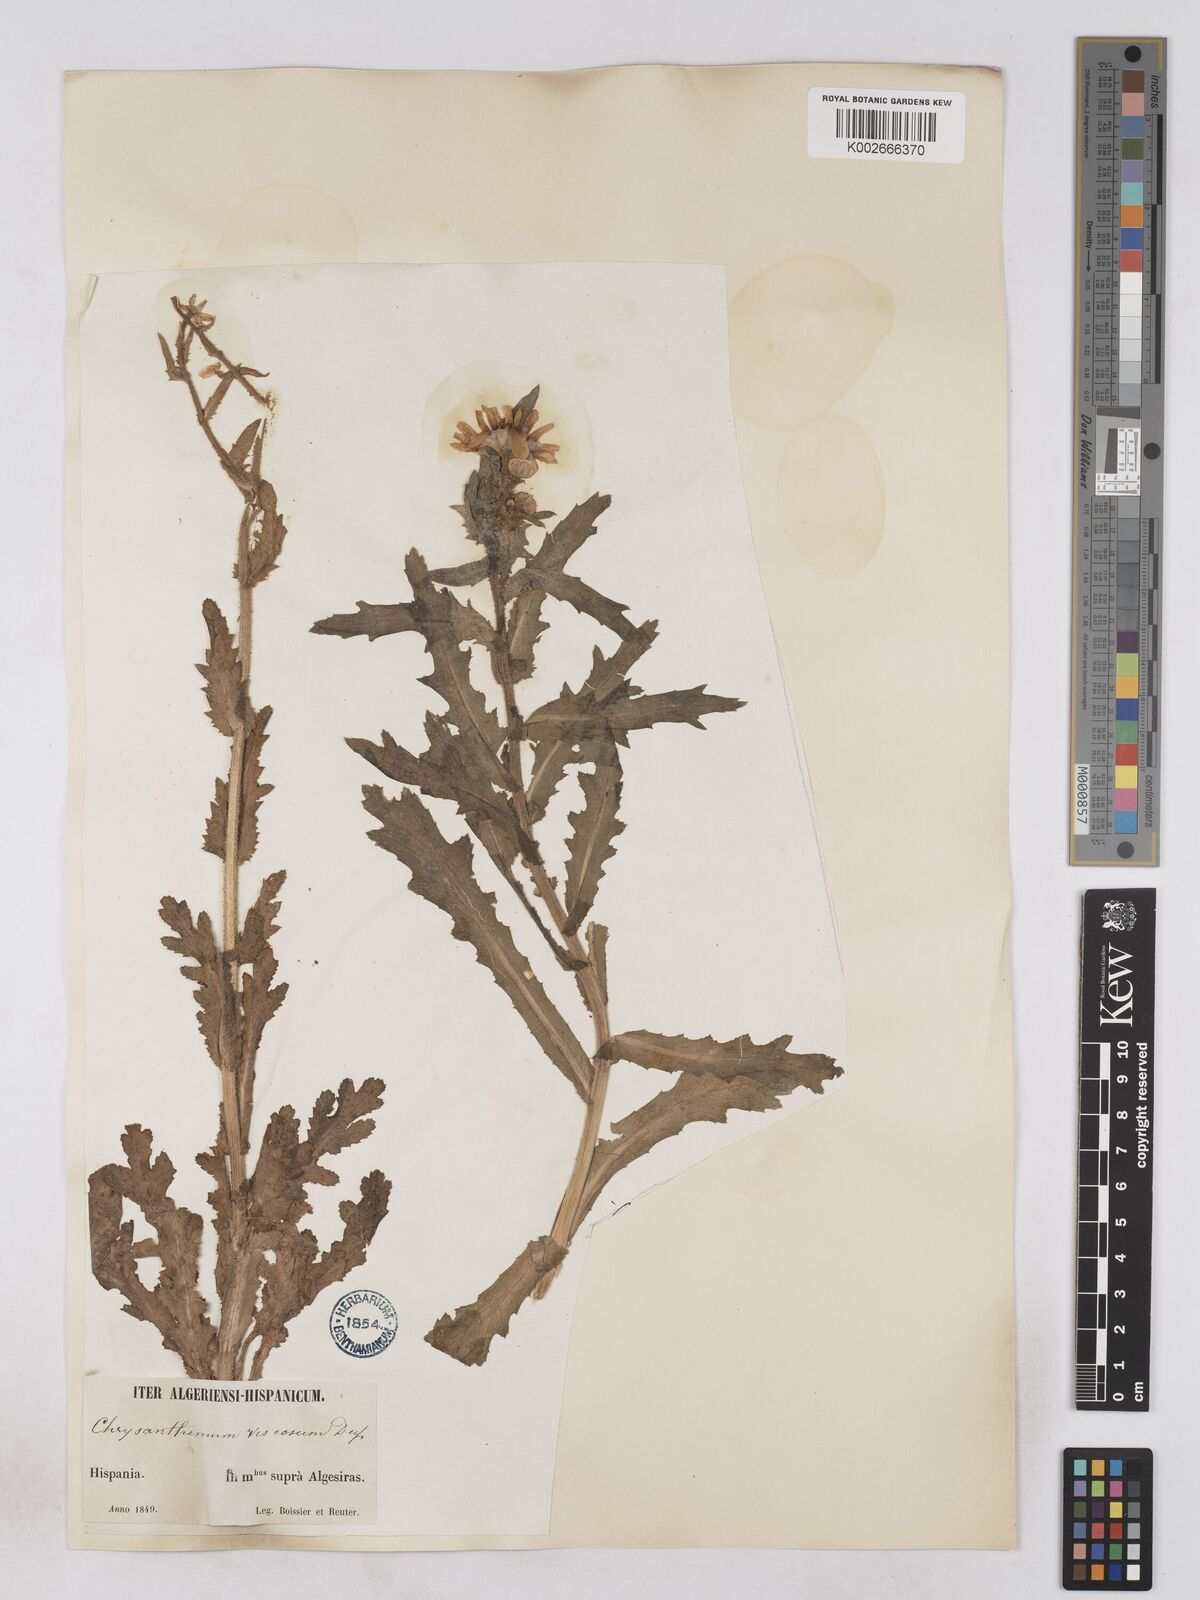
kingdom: Plantae
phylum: Tracheophyta
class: Magnoliopsida
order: Asterales
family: Asteraceae
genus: Heteranthemis
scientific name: Heteranthemis
